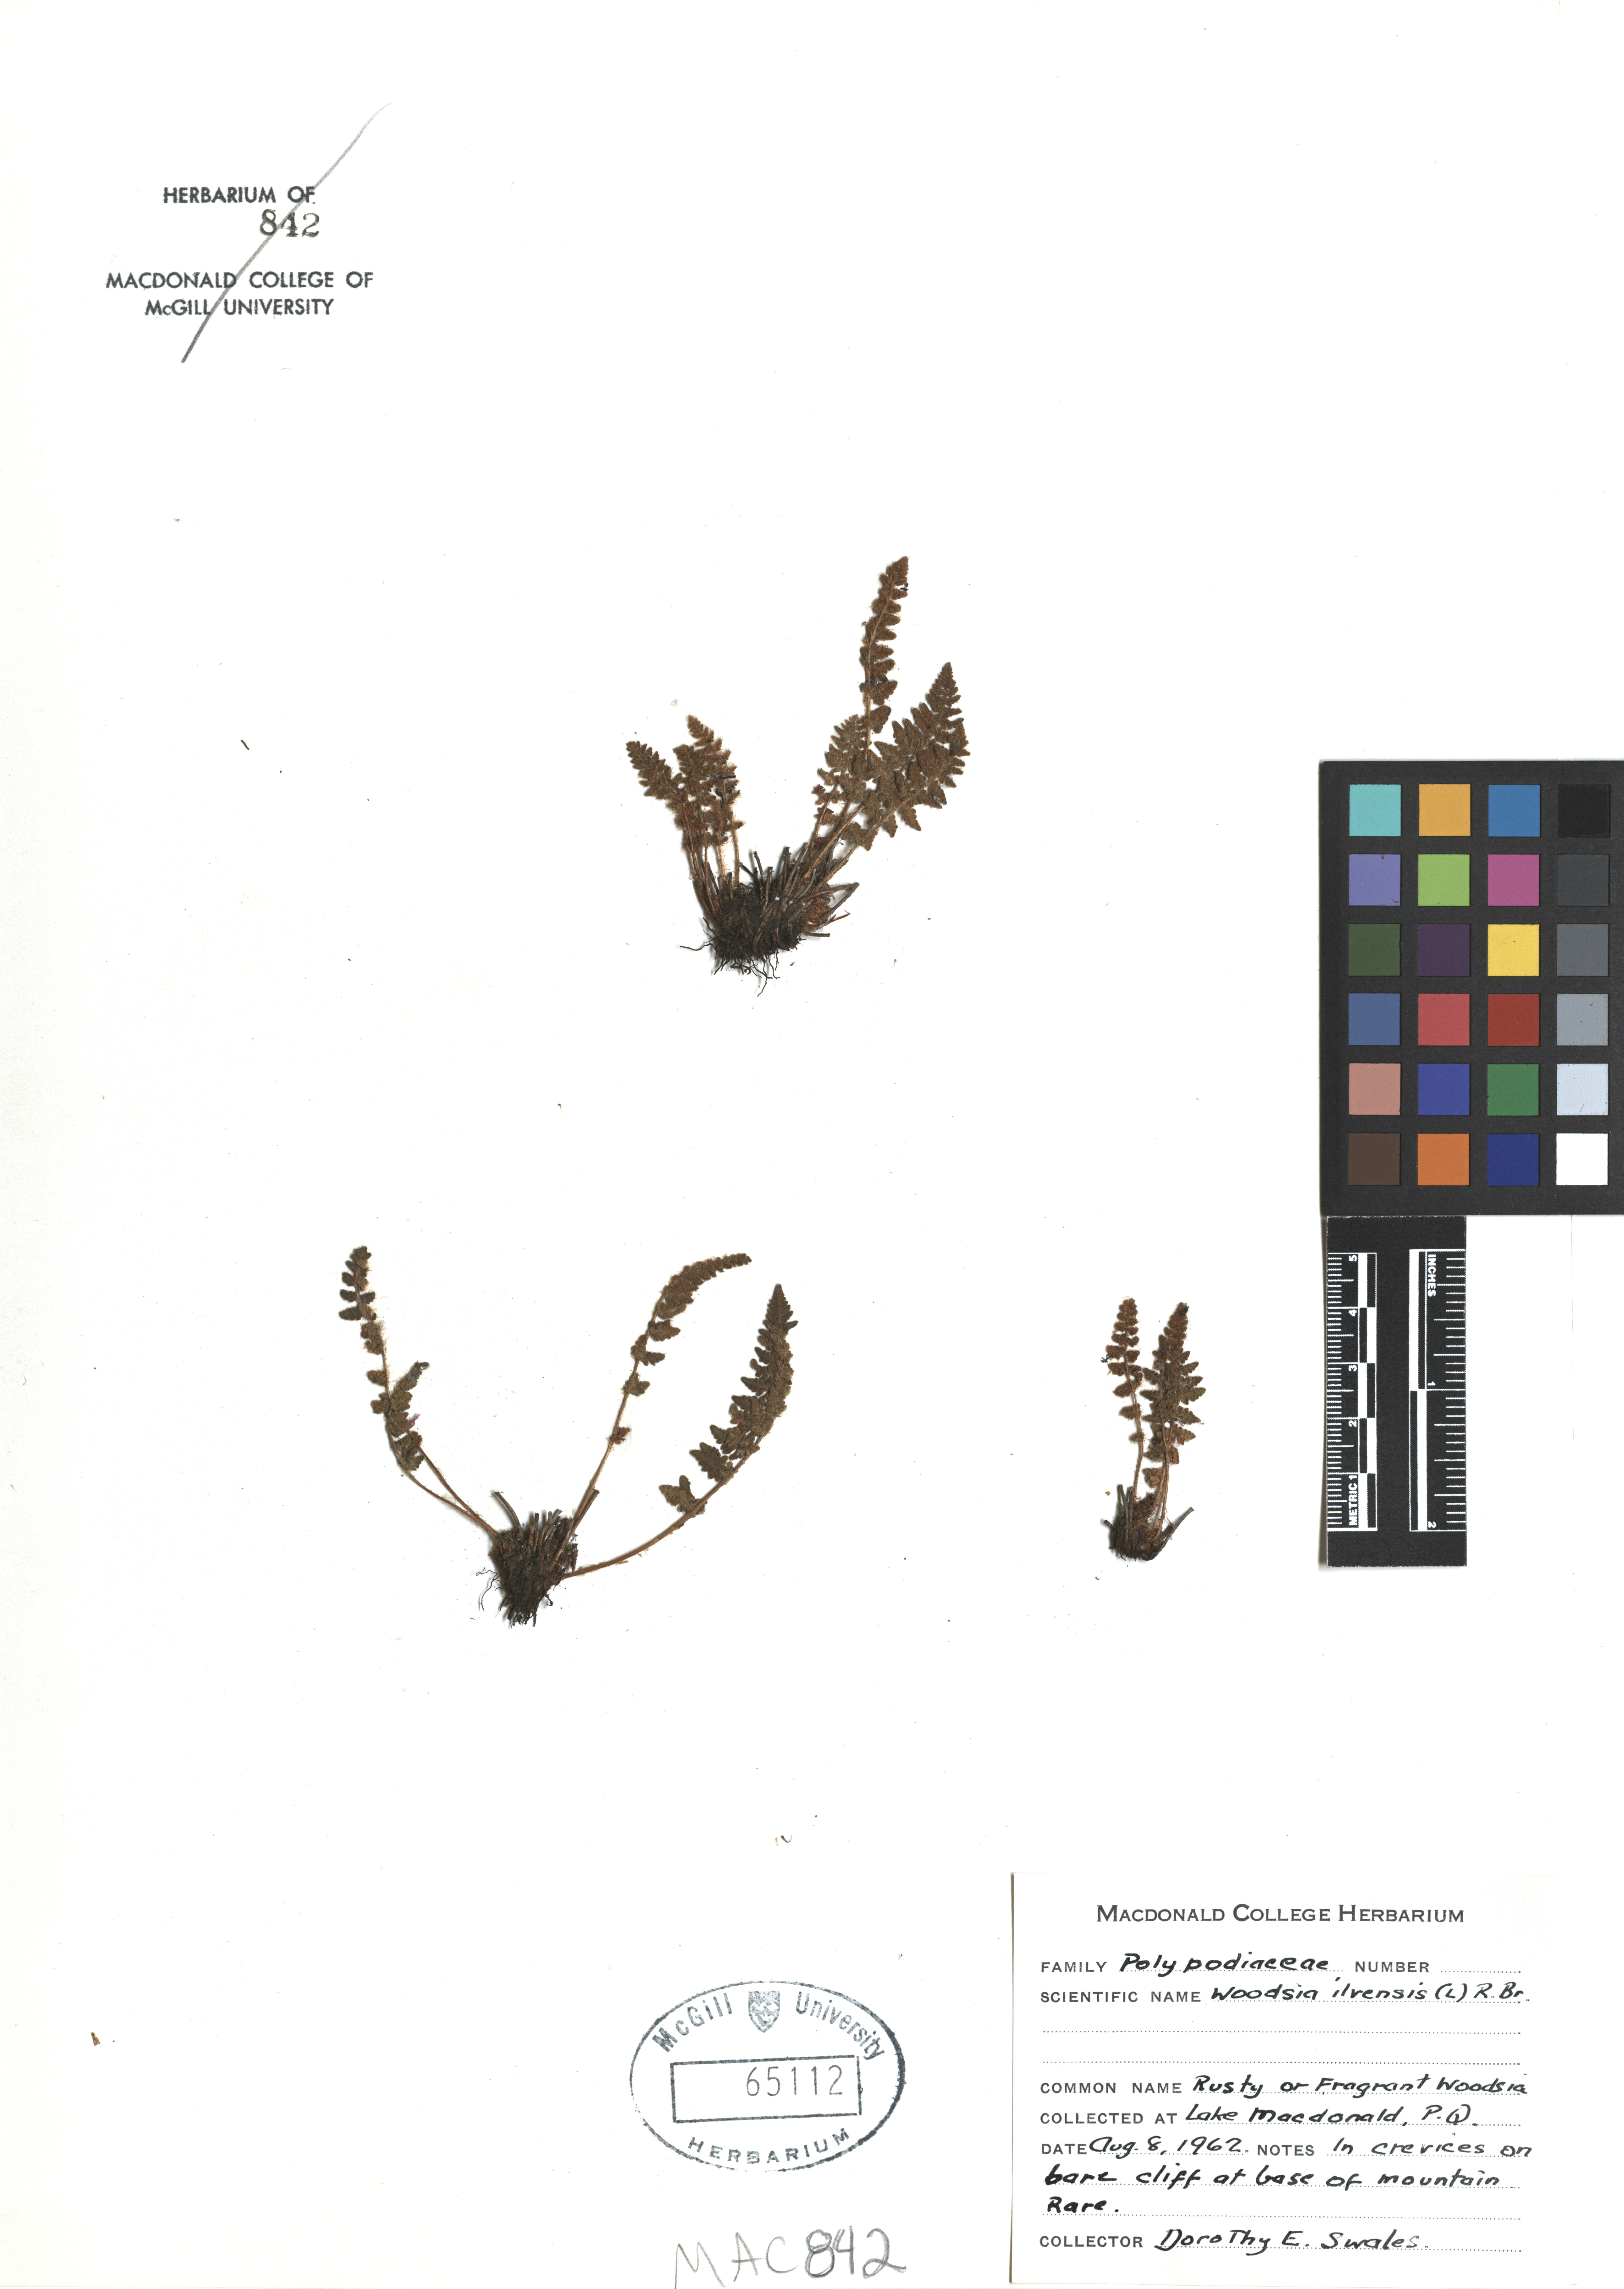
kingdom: Plantae
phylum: Tracheophyta
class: Polypodiopsida
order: Polypodiales
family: Woodsiaceae
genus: Woodsia
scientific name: Woodsia ilvensis
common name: Fragrant woodsia
